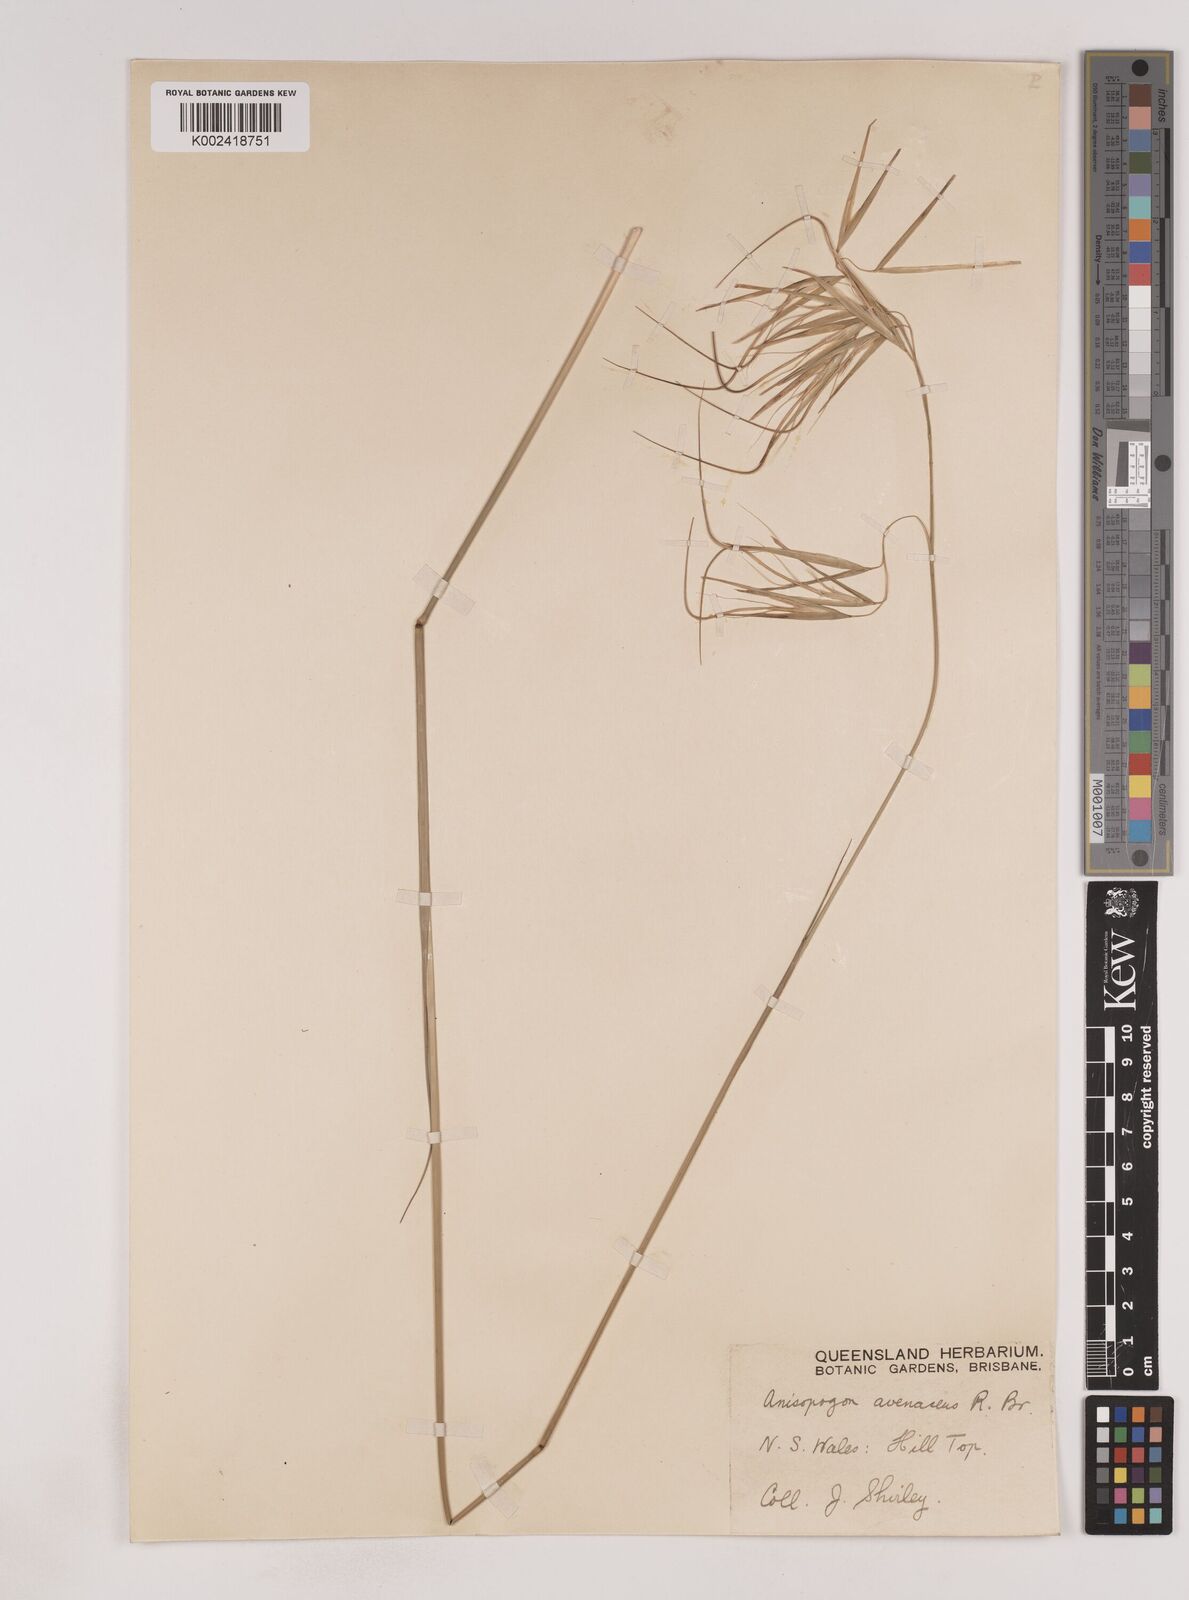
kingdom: Plantae
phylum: Tracheophyta
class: Liliopsida
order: Poales
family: Poaceae
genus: Anisopogon
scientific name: Anisopogon avenaceus
